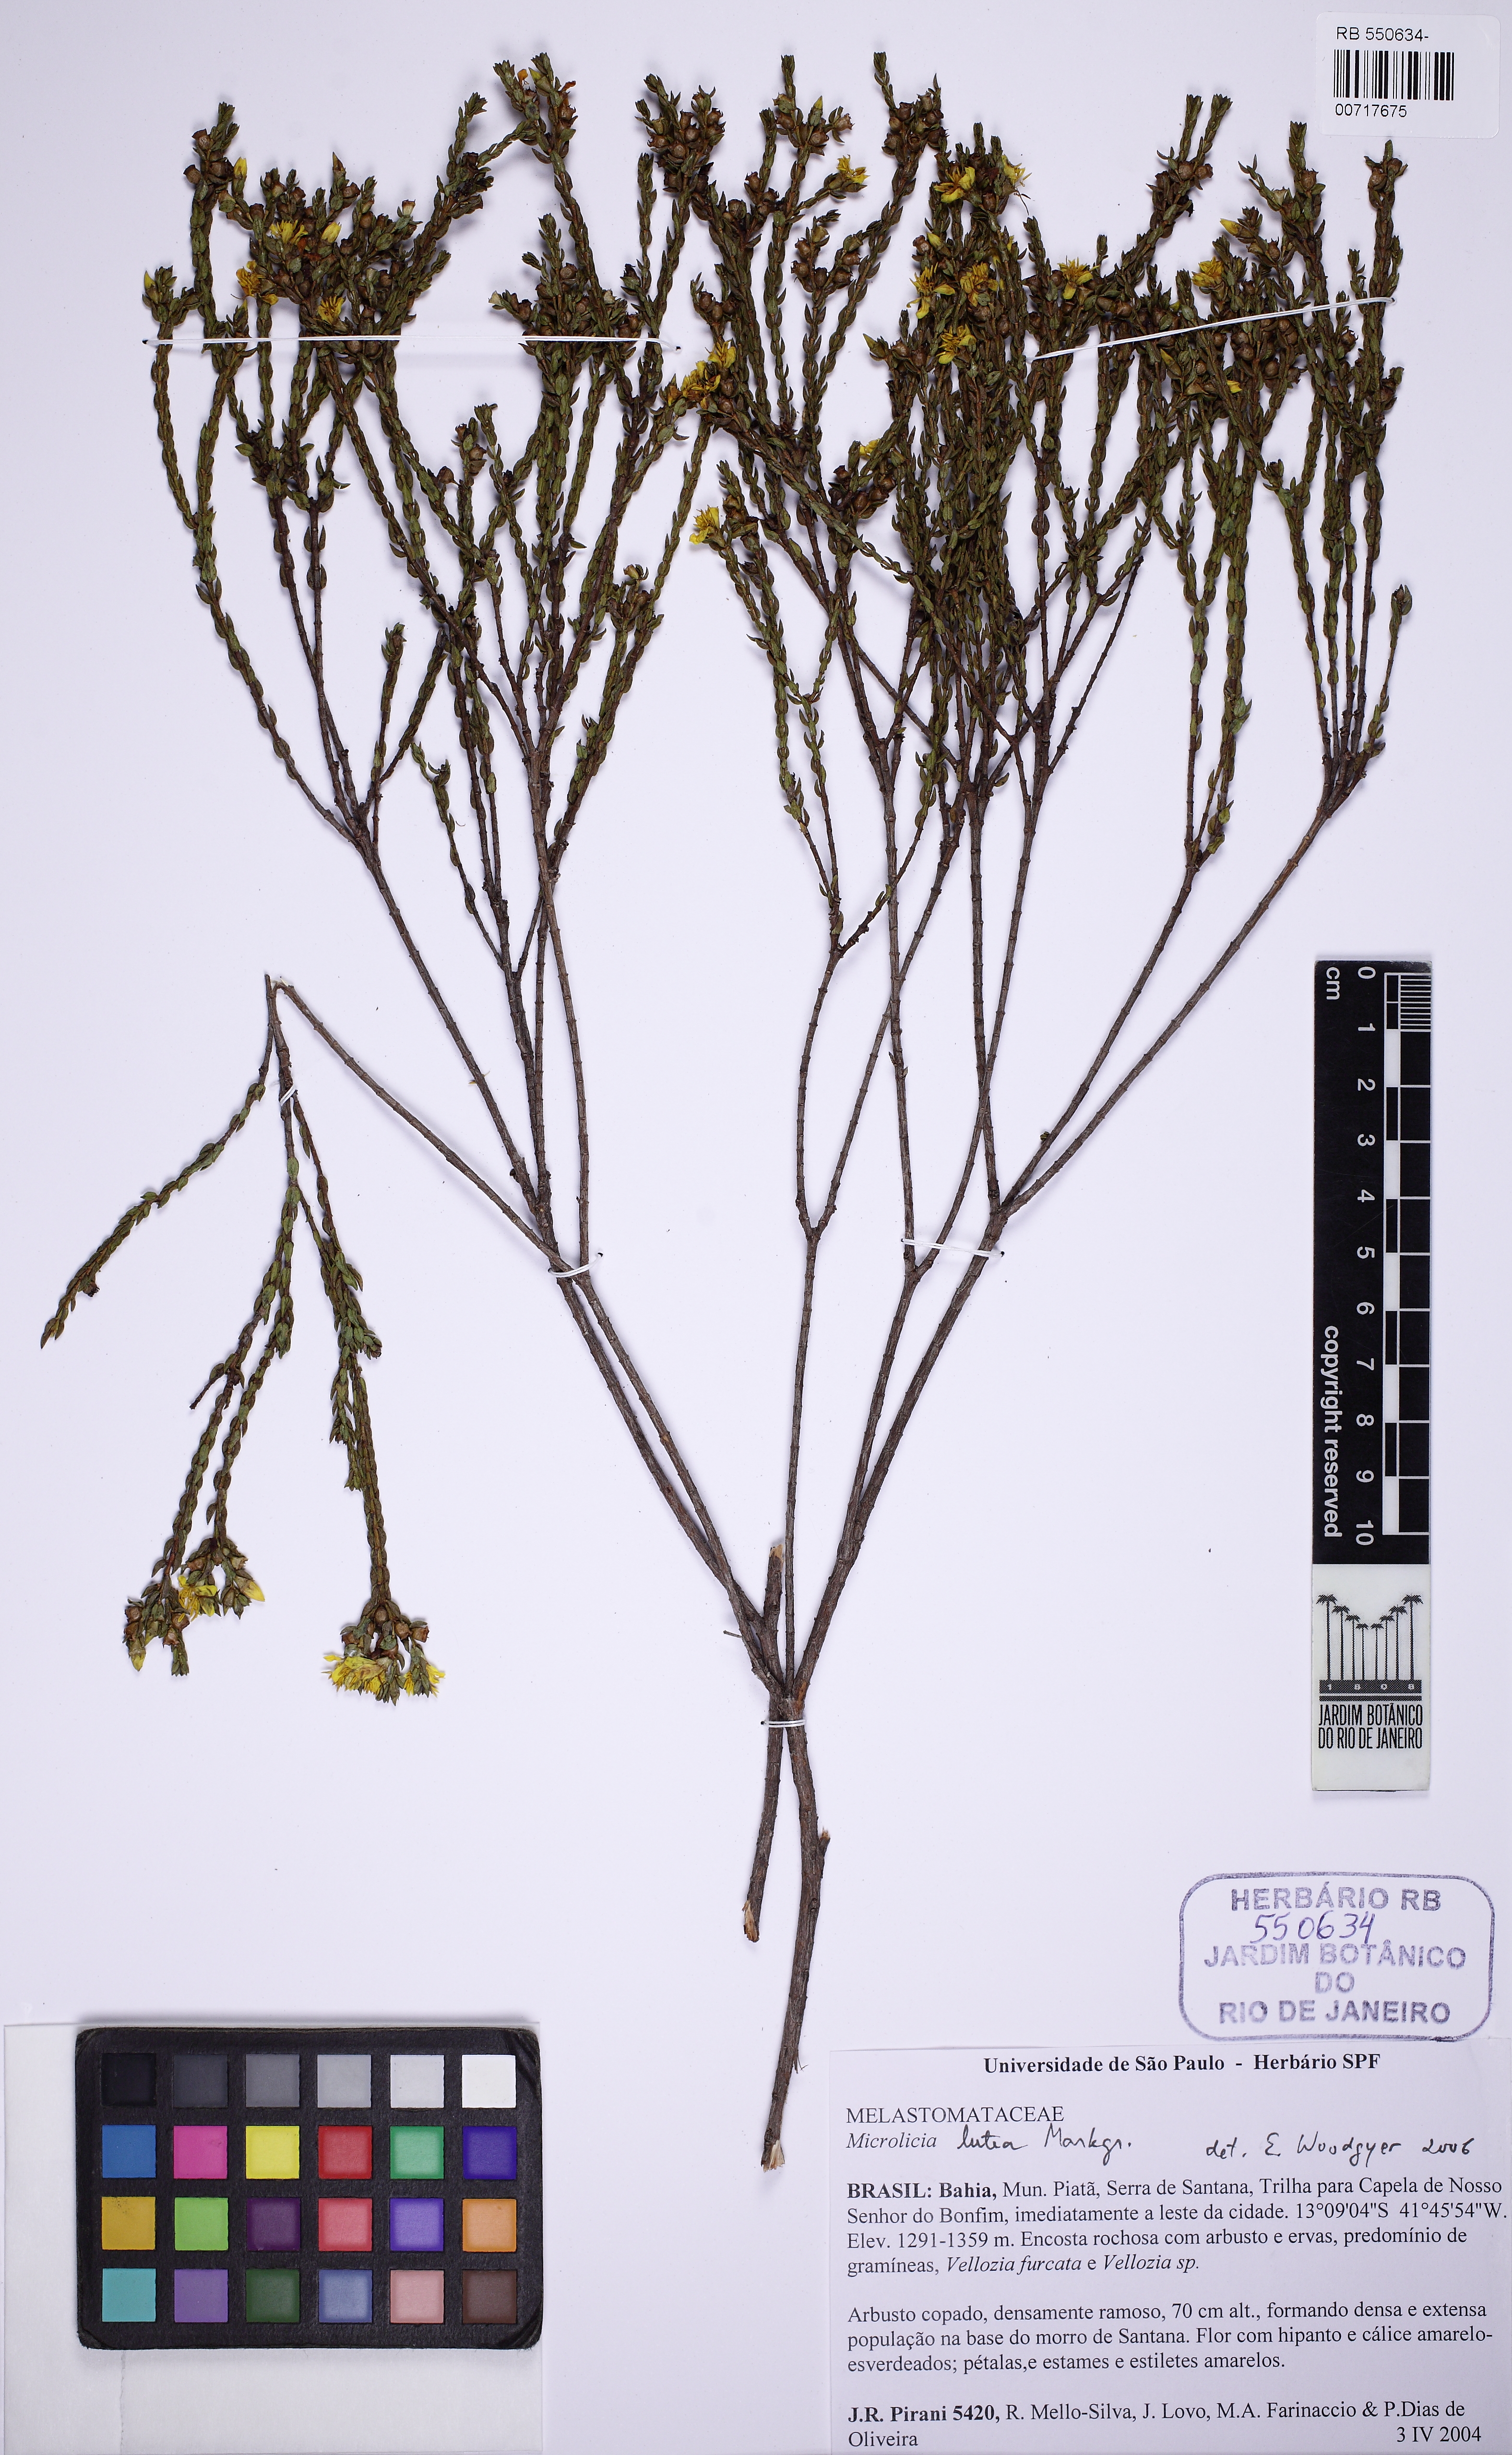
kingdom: Plantae
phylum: Tracheophyta
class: Magnoliopsida
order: Myrtales
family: Melastomataceae
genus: Microlicia
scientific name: Microlicia lutea
